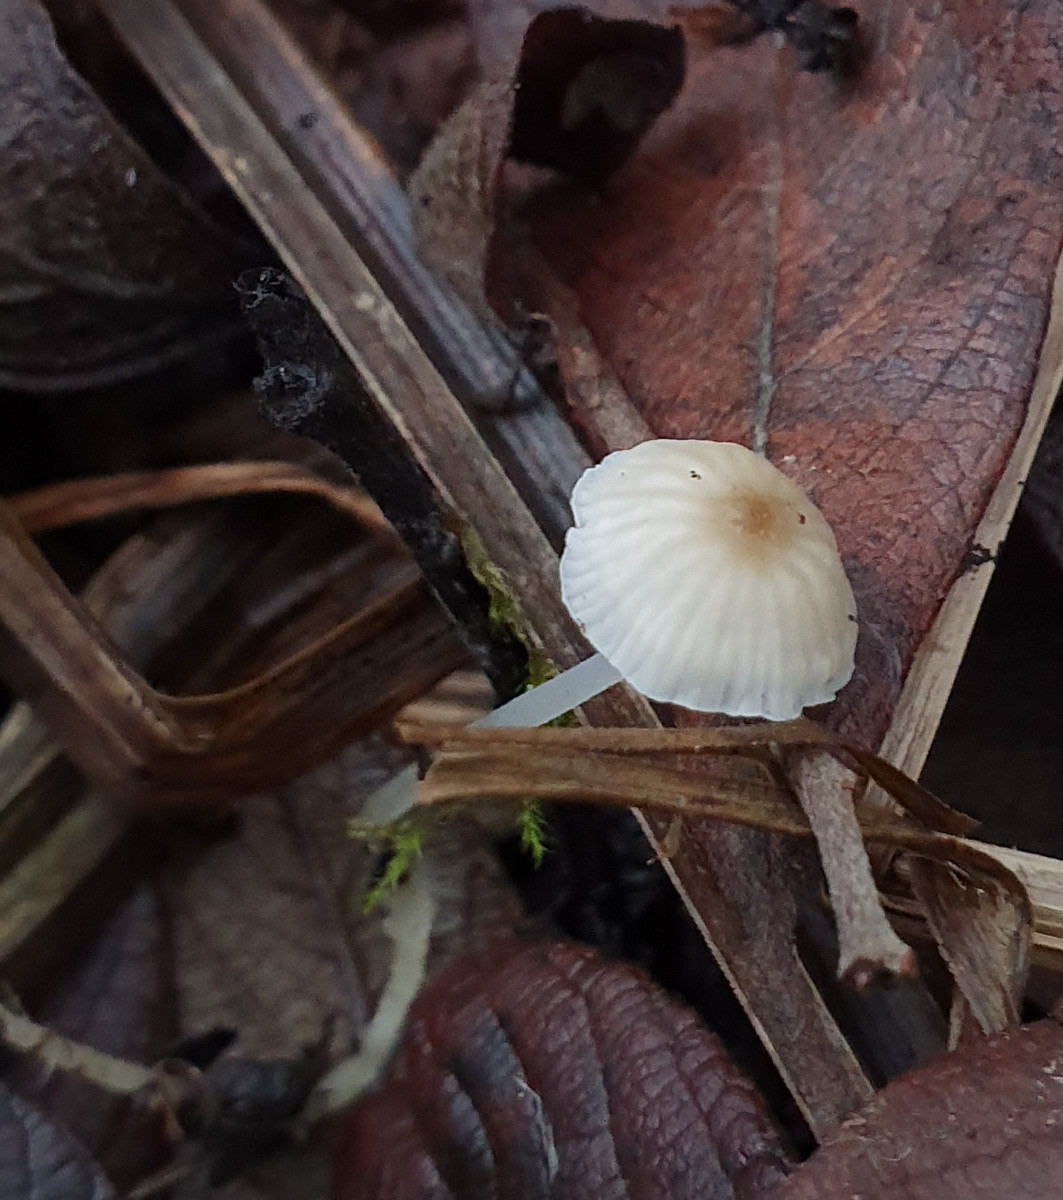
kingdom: Fungi
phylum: Basidiomycota
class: Agaricomycetes
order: Agaricales
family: Porotheleaceae
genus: Phloeomana
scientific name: Phloeomana speirea
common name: kvist-huesvamp
